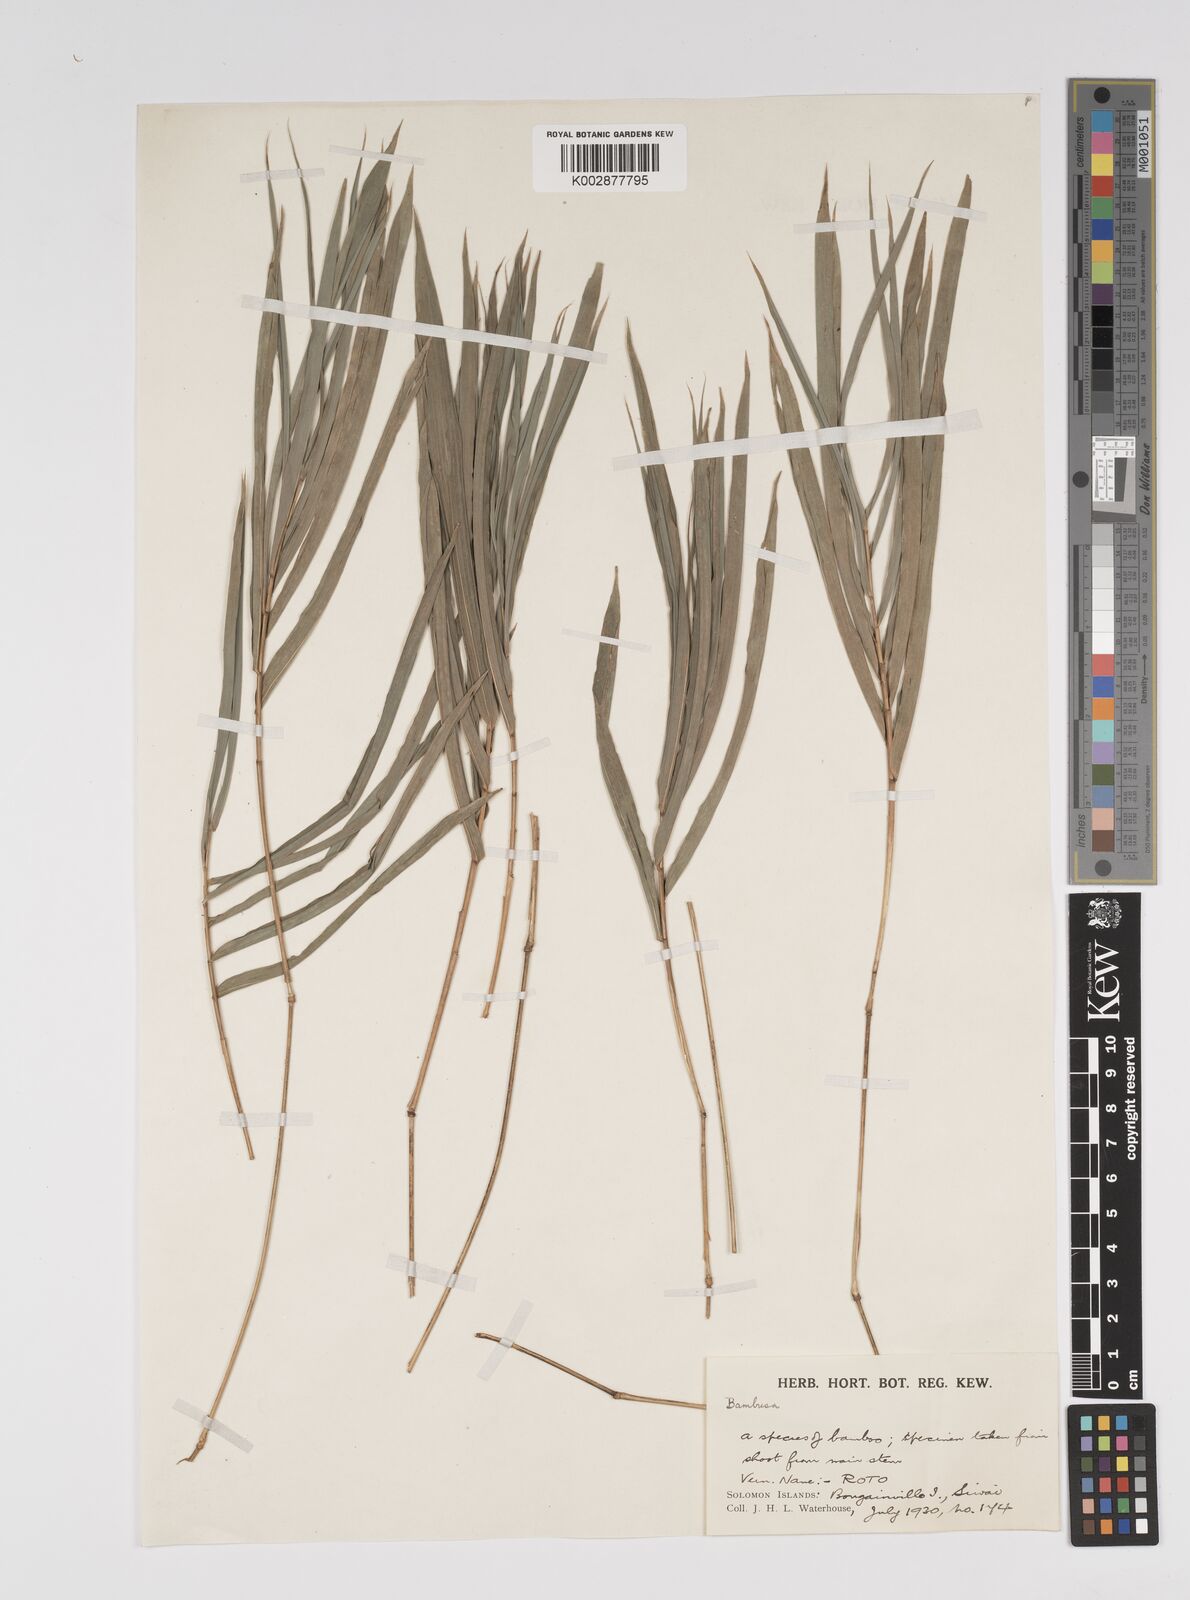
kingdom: Plantae
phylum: Tracheophyta
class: Liliopsida
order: Poales
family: Poaceae
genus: Bambusa
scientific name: Bambusa multiplex
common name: Hedge bamboo
